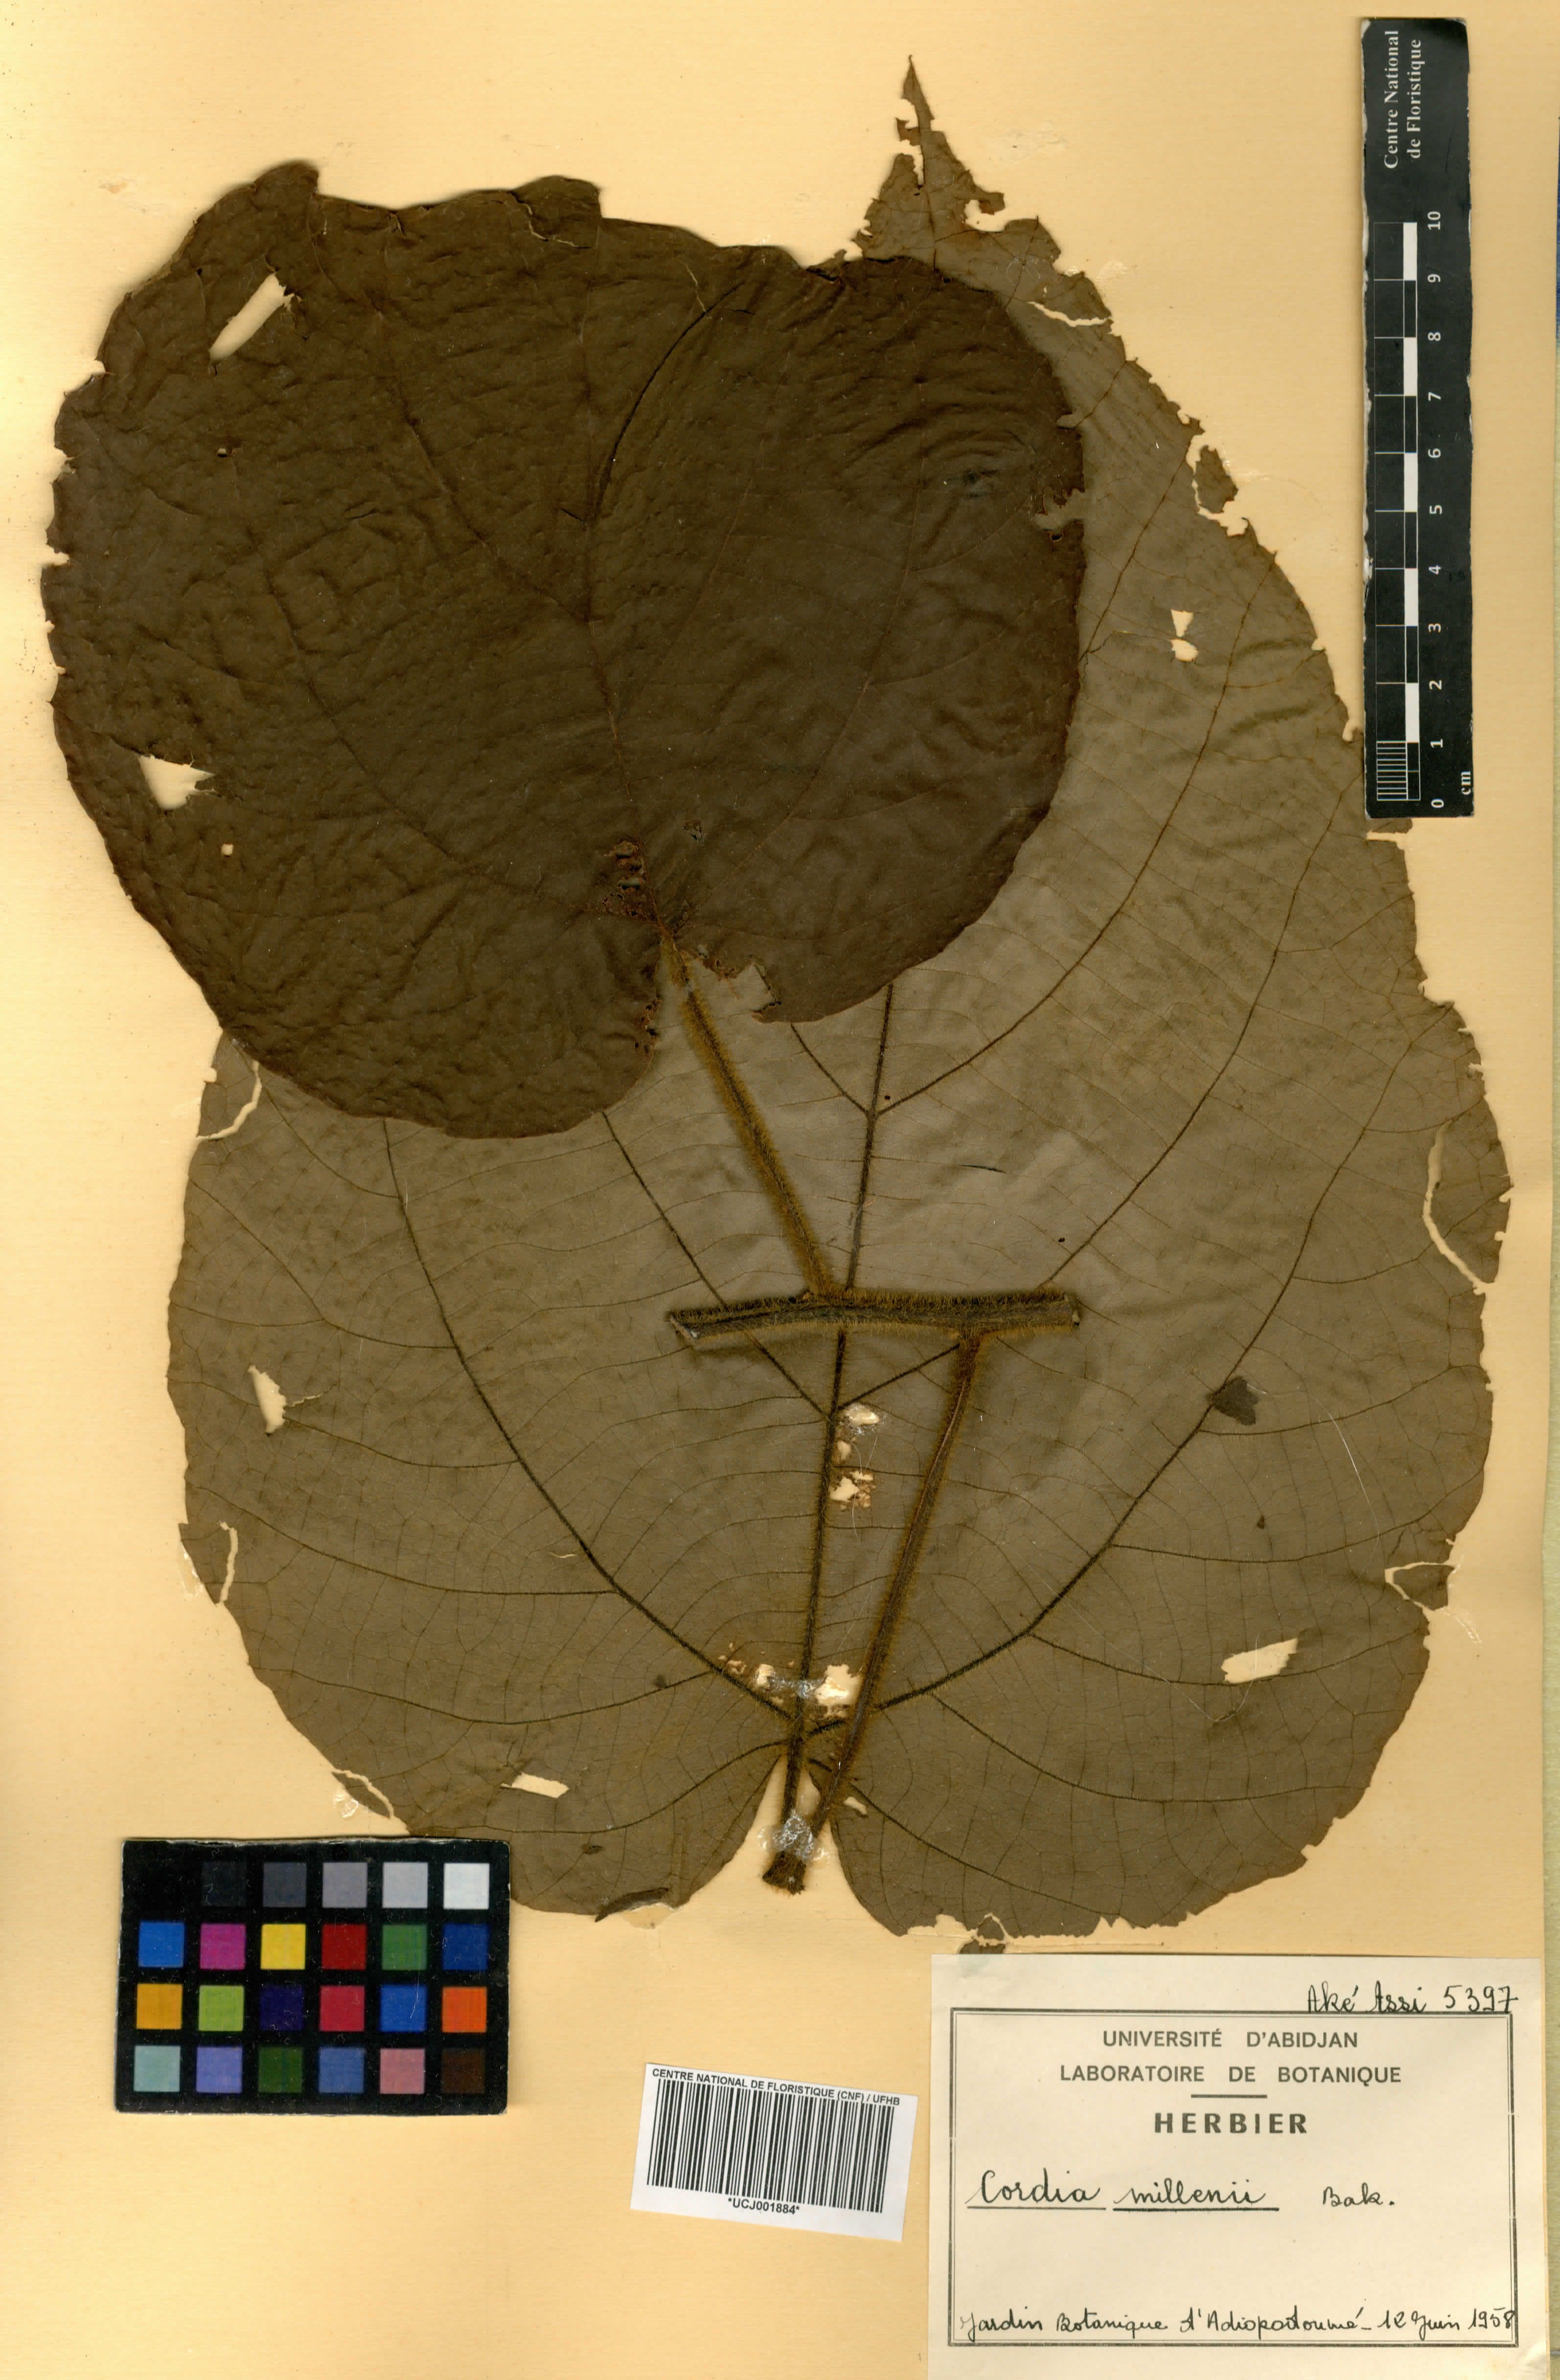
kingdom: Plantae
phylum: Tracheophyta
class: Magnoliopsida
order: Boraginales
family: Cordiaceae
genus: Cordia
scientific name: Cordia millenii
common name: Drum tree
